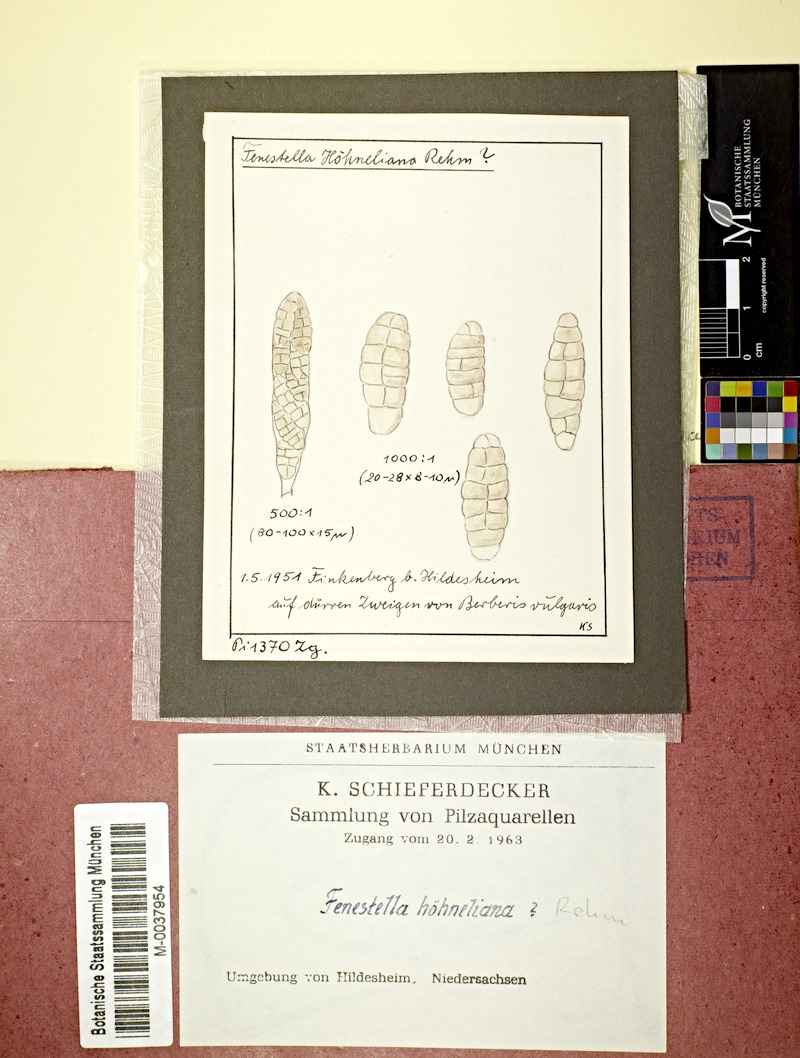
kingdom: Plantae
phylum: Tracheophyta
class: Magnoliopsida
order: Ranunculales
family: Berberidaceae
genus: Berberis
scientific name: Berberis vulgaris
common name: Barberry
